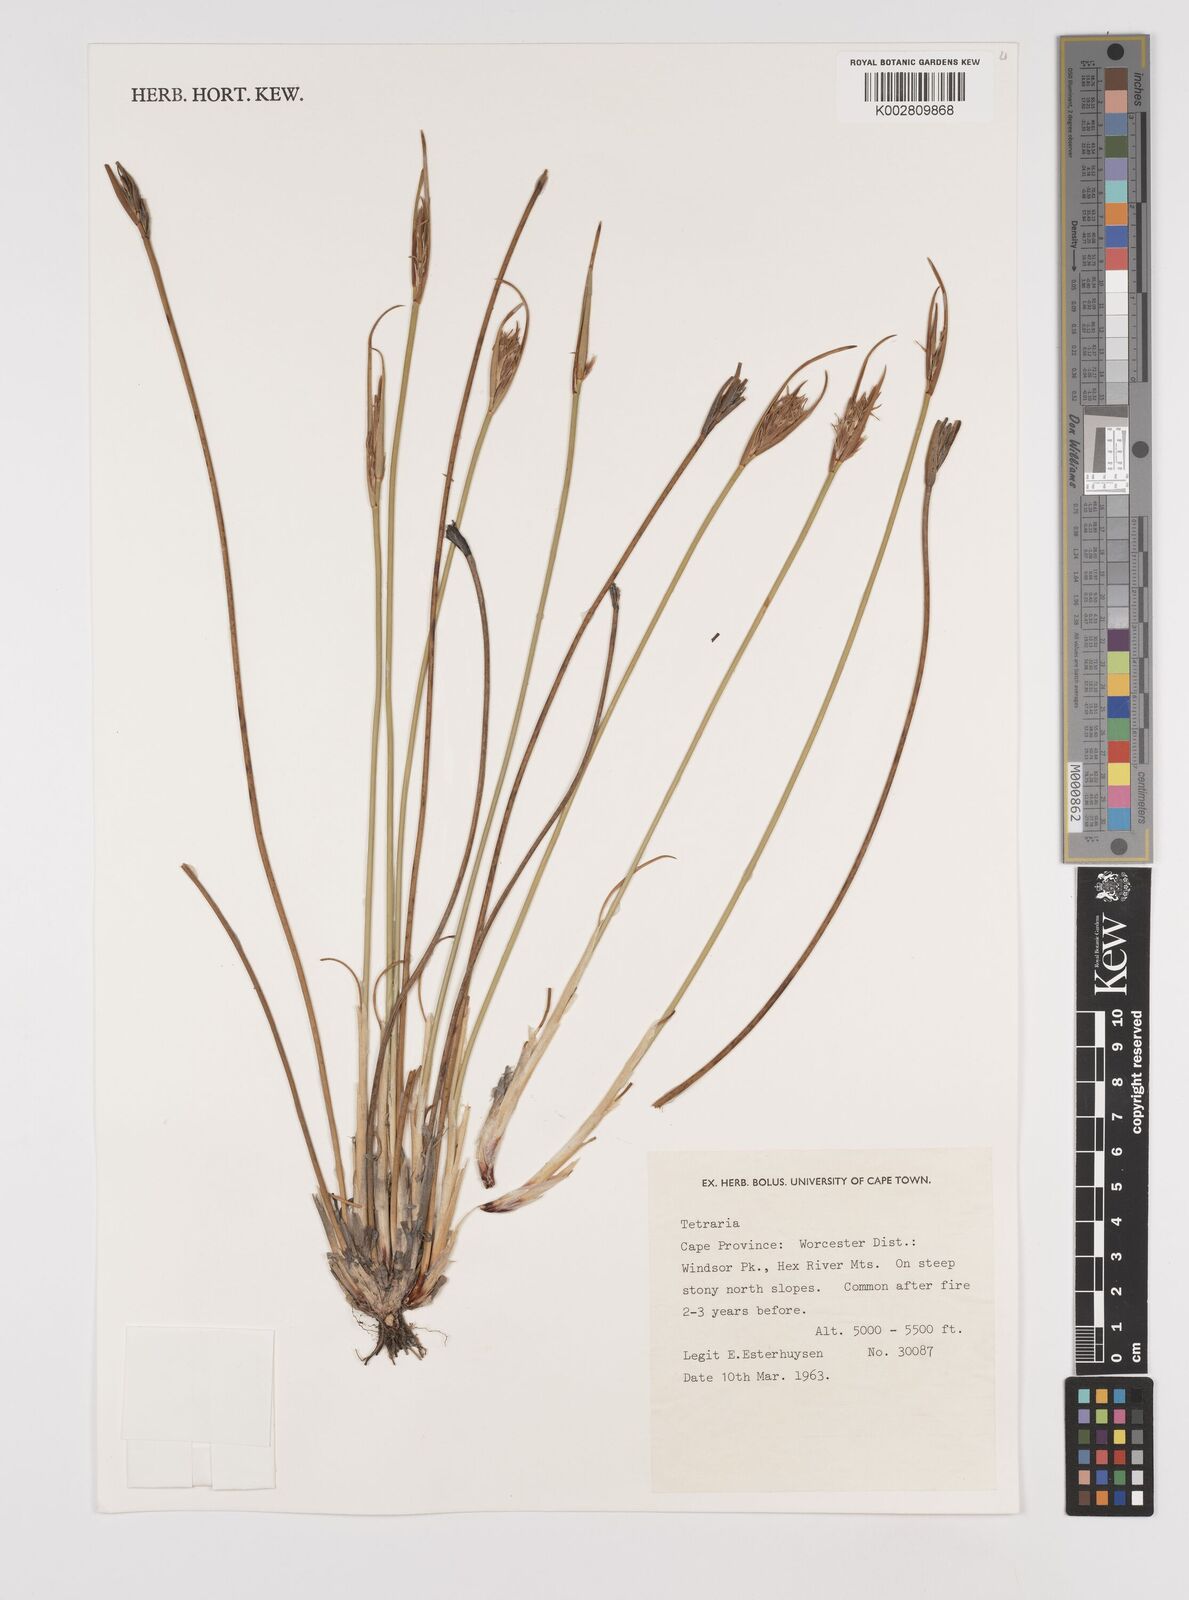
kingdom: Plantae
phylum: Tracheophyta
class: Liliopsida
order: Poales
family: Cyperaceae
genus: Schoenus
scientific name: Schoenus
